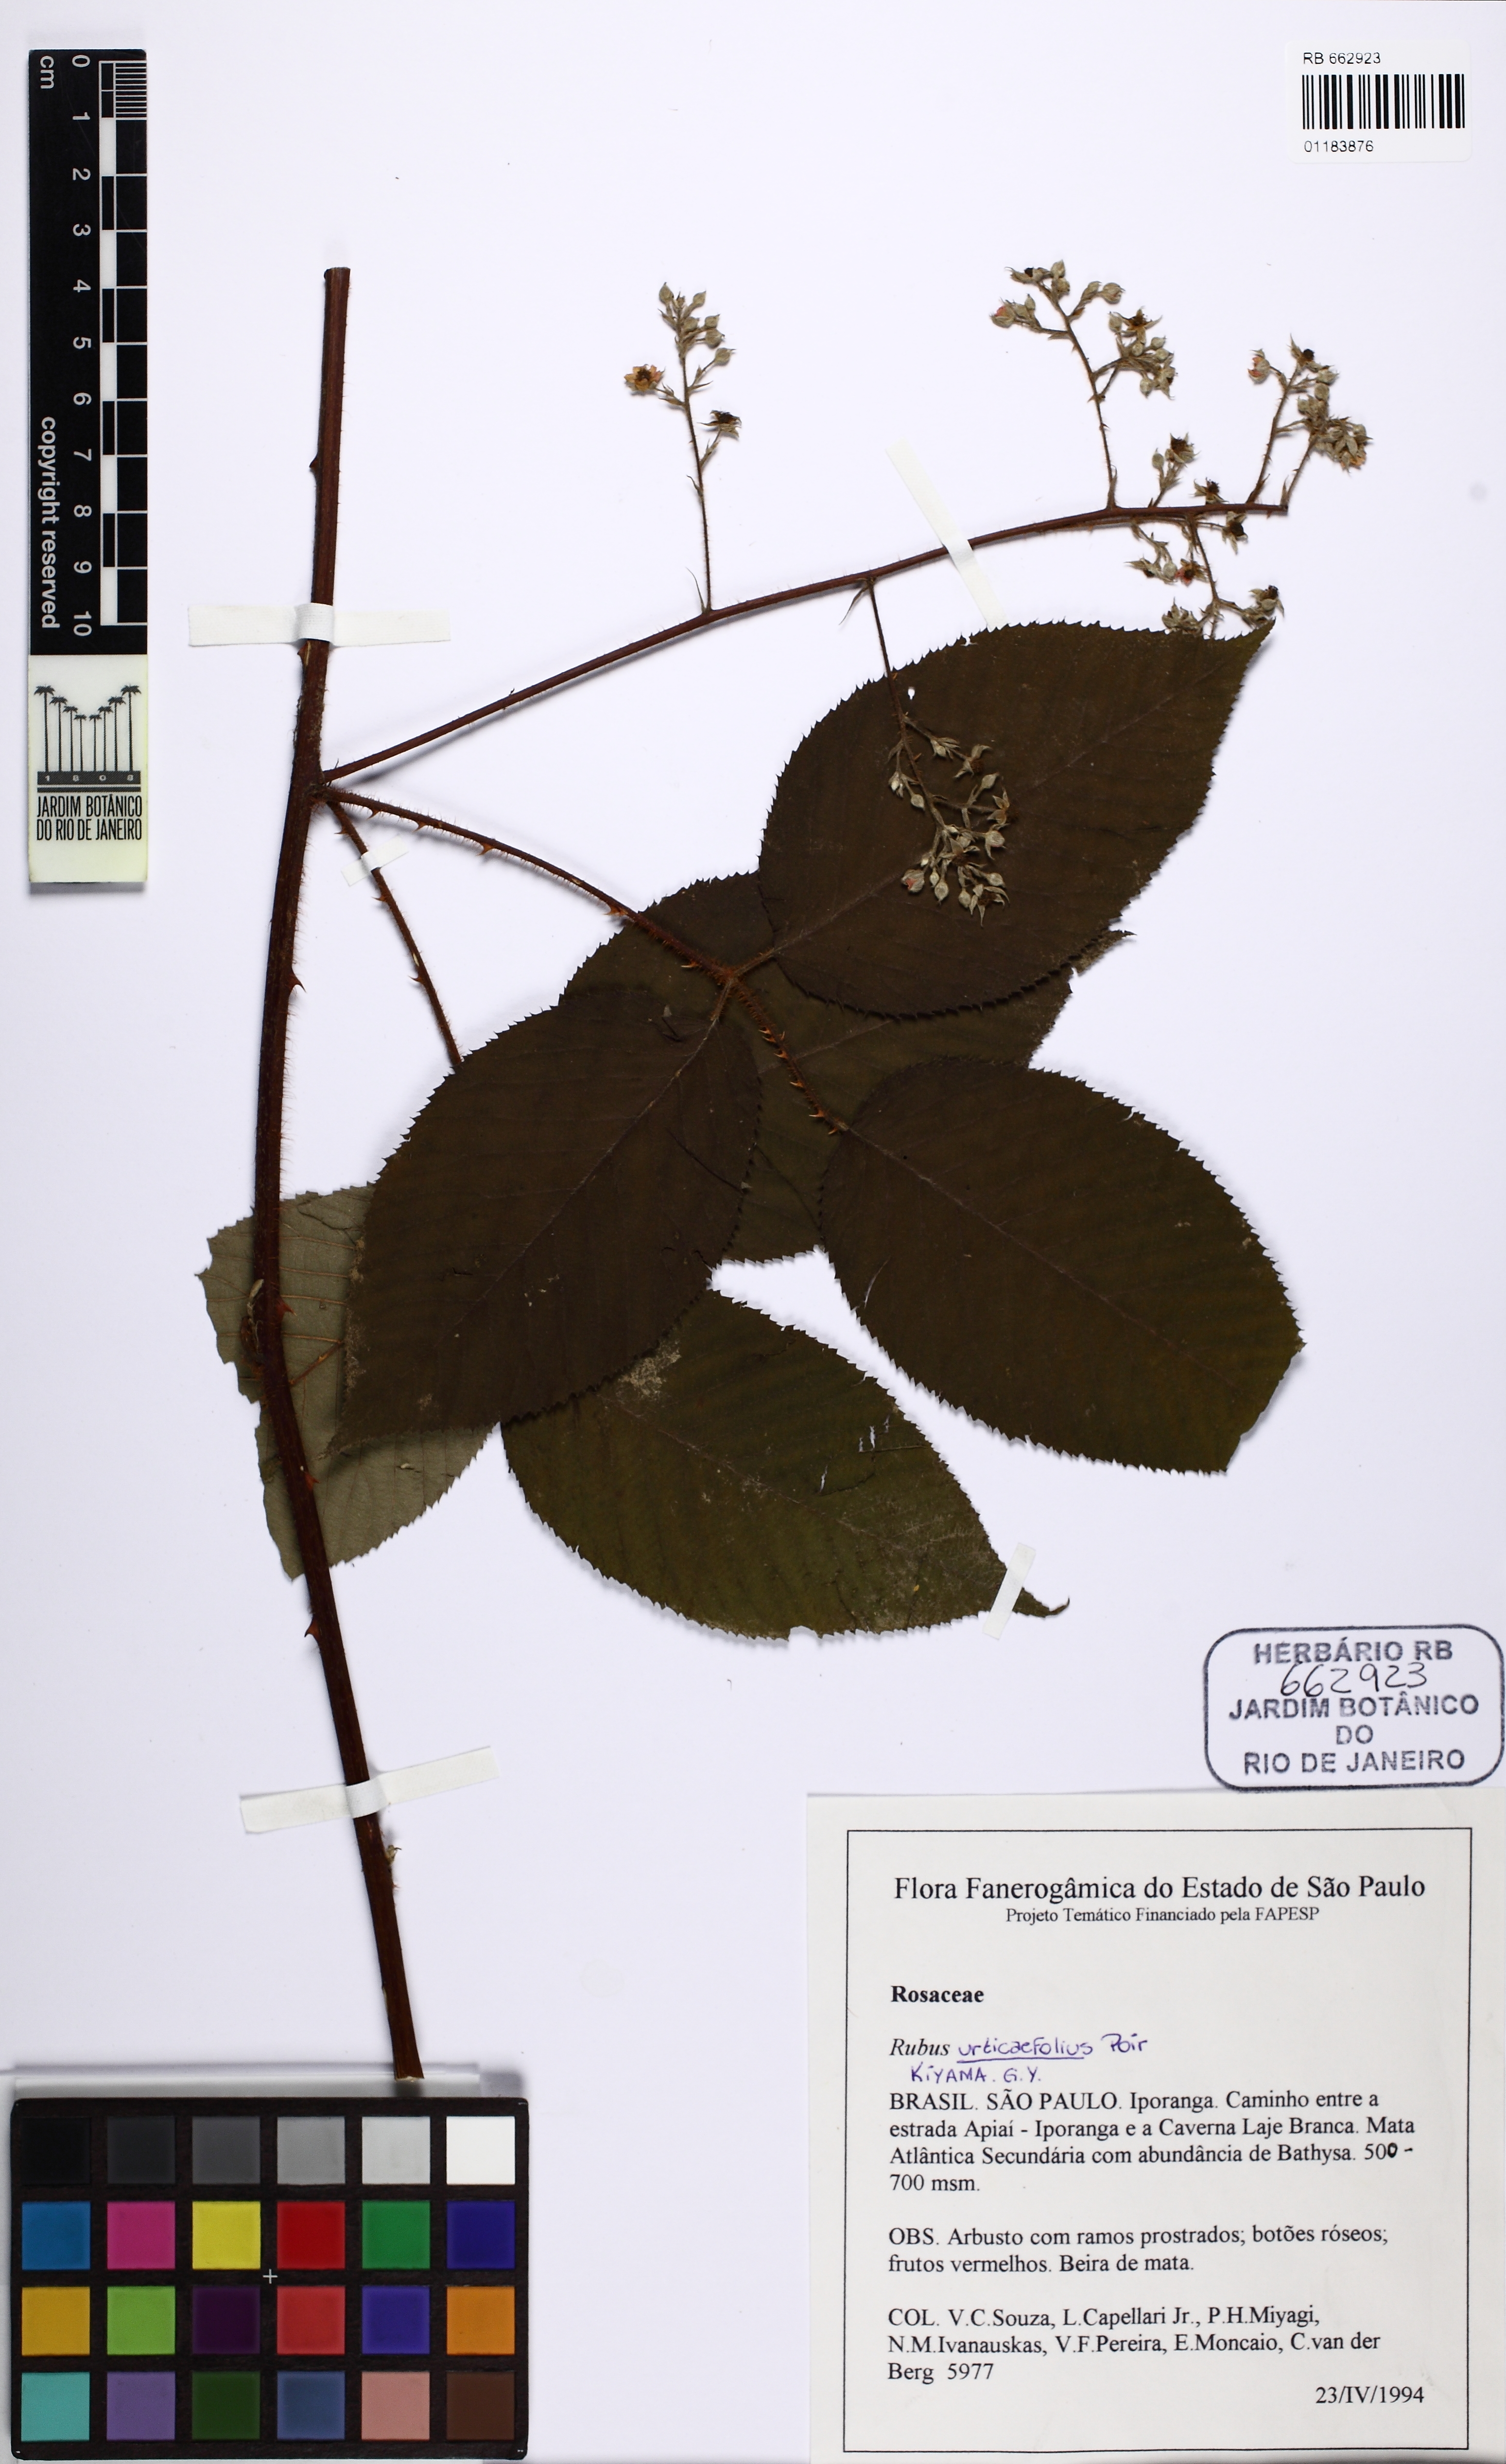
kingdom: Plantae
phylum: Tracheophyta
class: Magnoliopsida
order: Rosales
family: Rosaceae
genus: Rubus
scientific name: Rubus urticifolius
